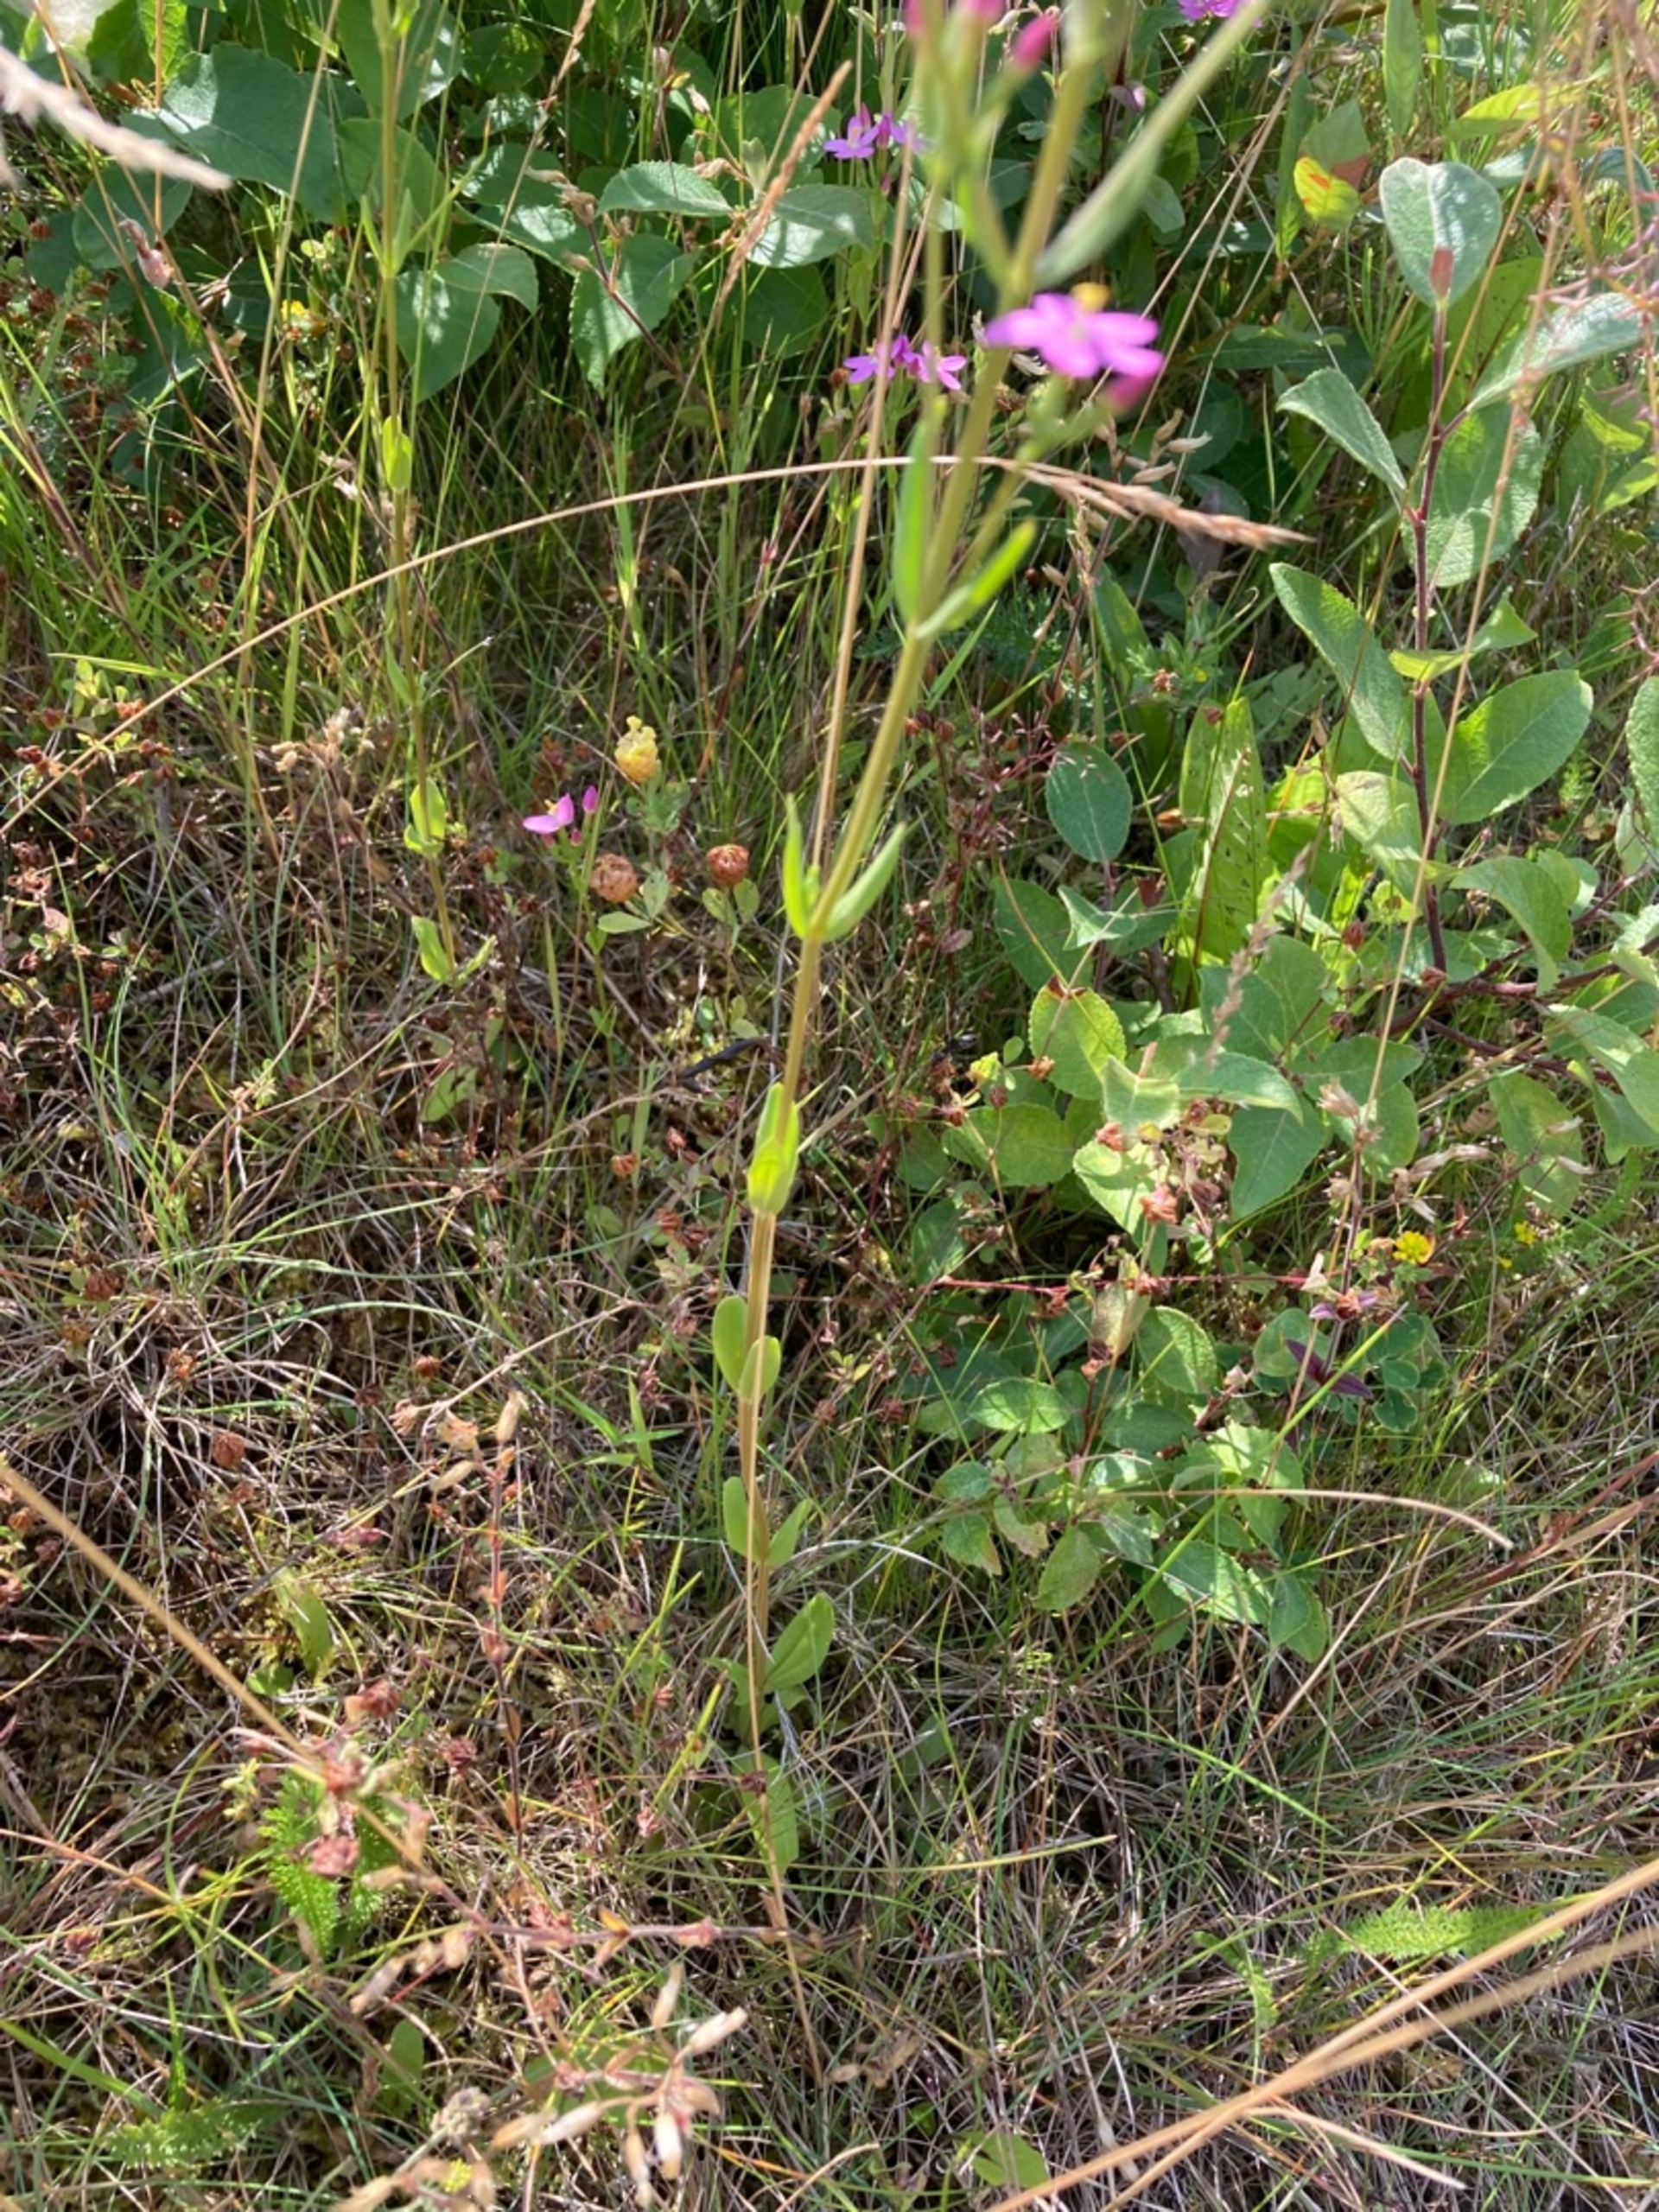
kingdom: Plantae
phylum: Tracheophyta
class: Magnoliopsida
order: Gentianales
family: Gentianaceae
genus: Centaurium
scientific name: Centaurium erythraea
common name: Mark-tusindgylden
